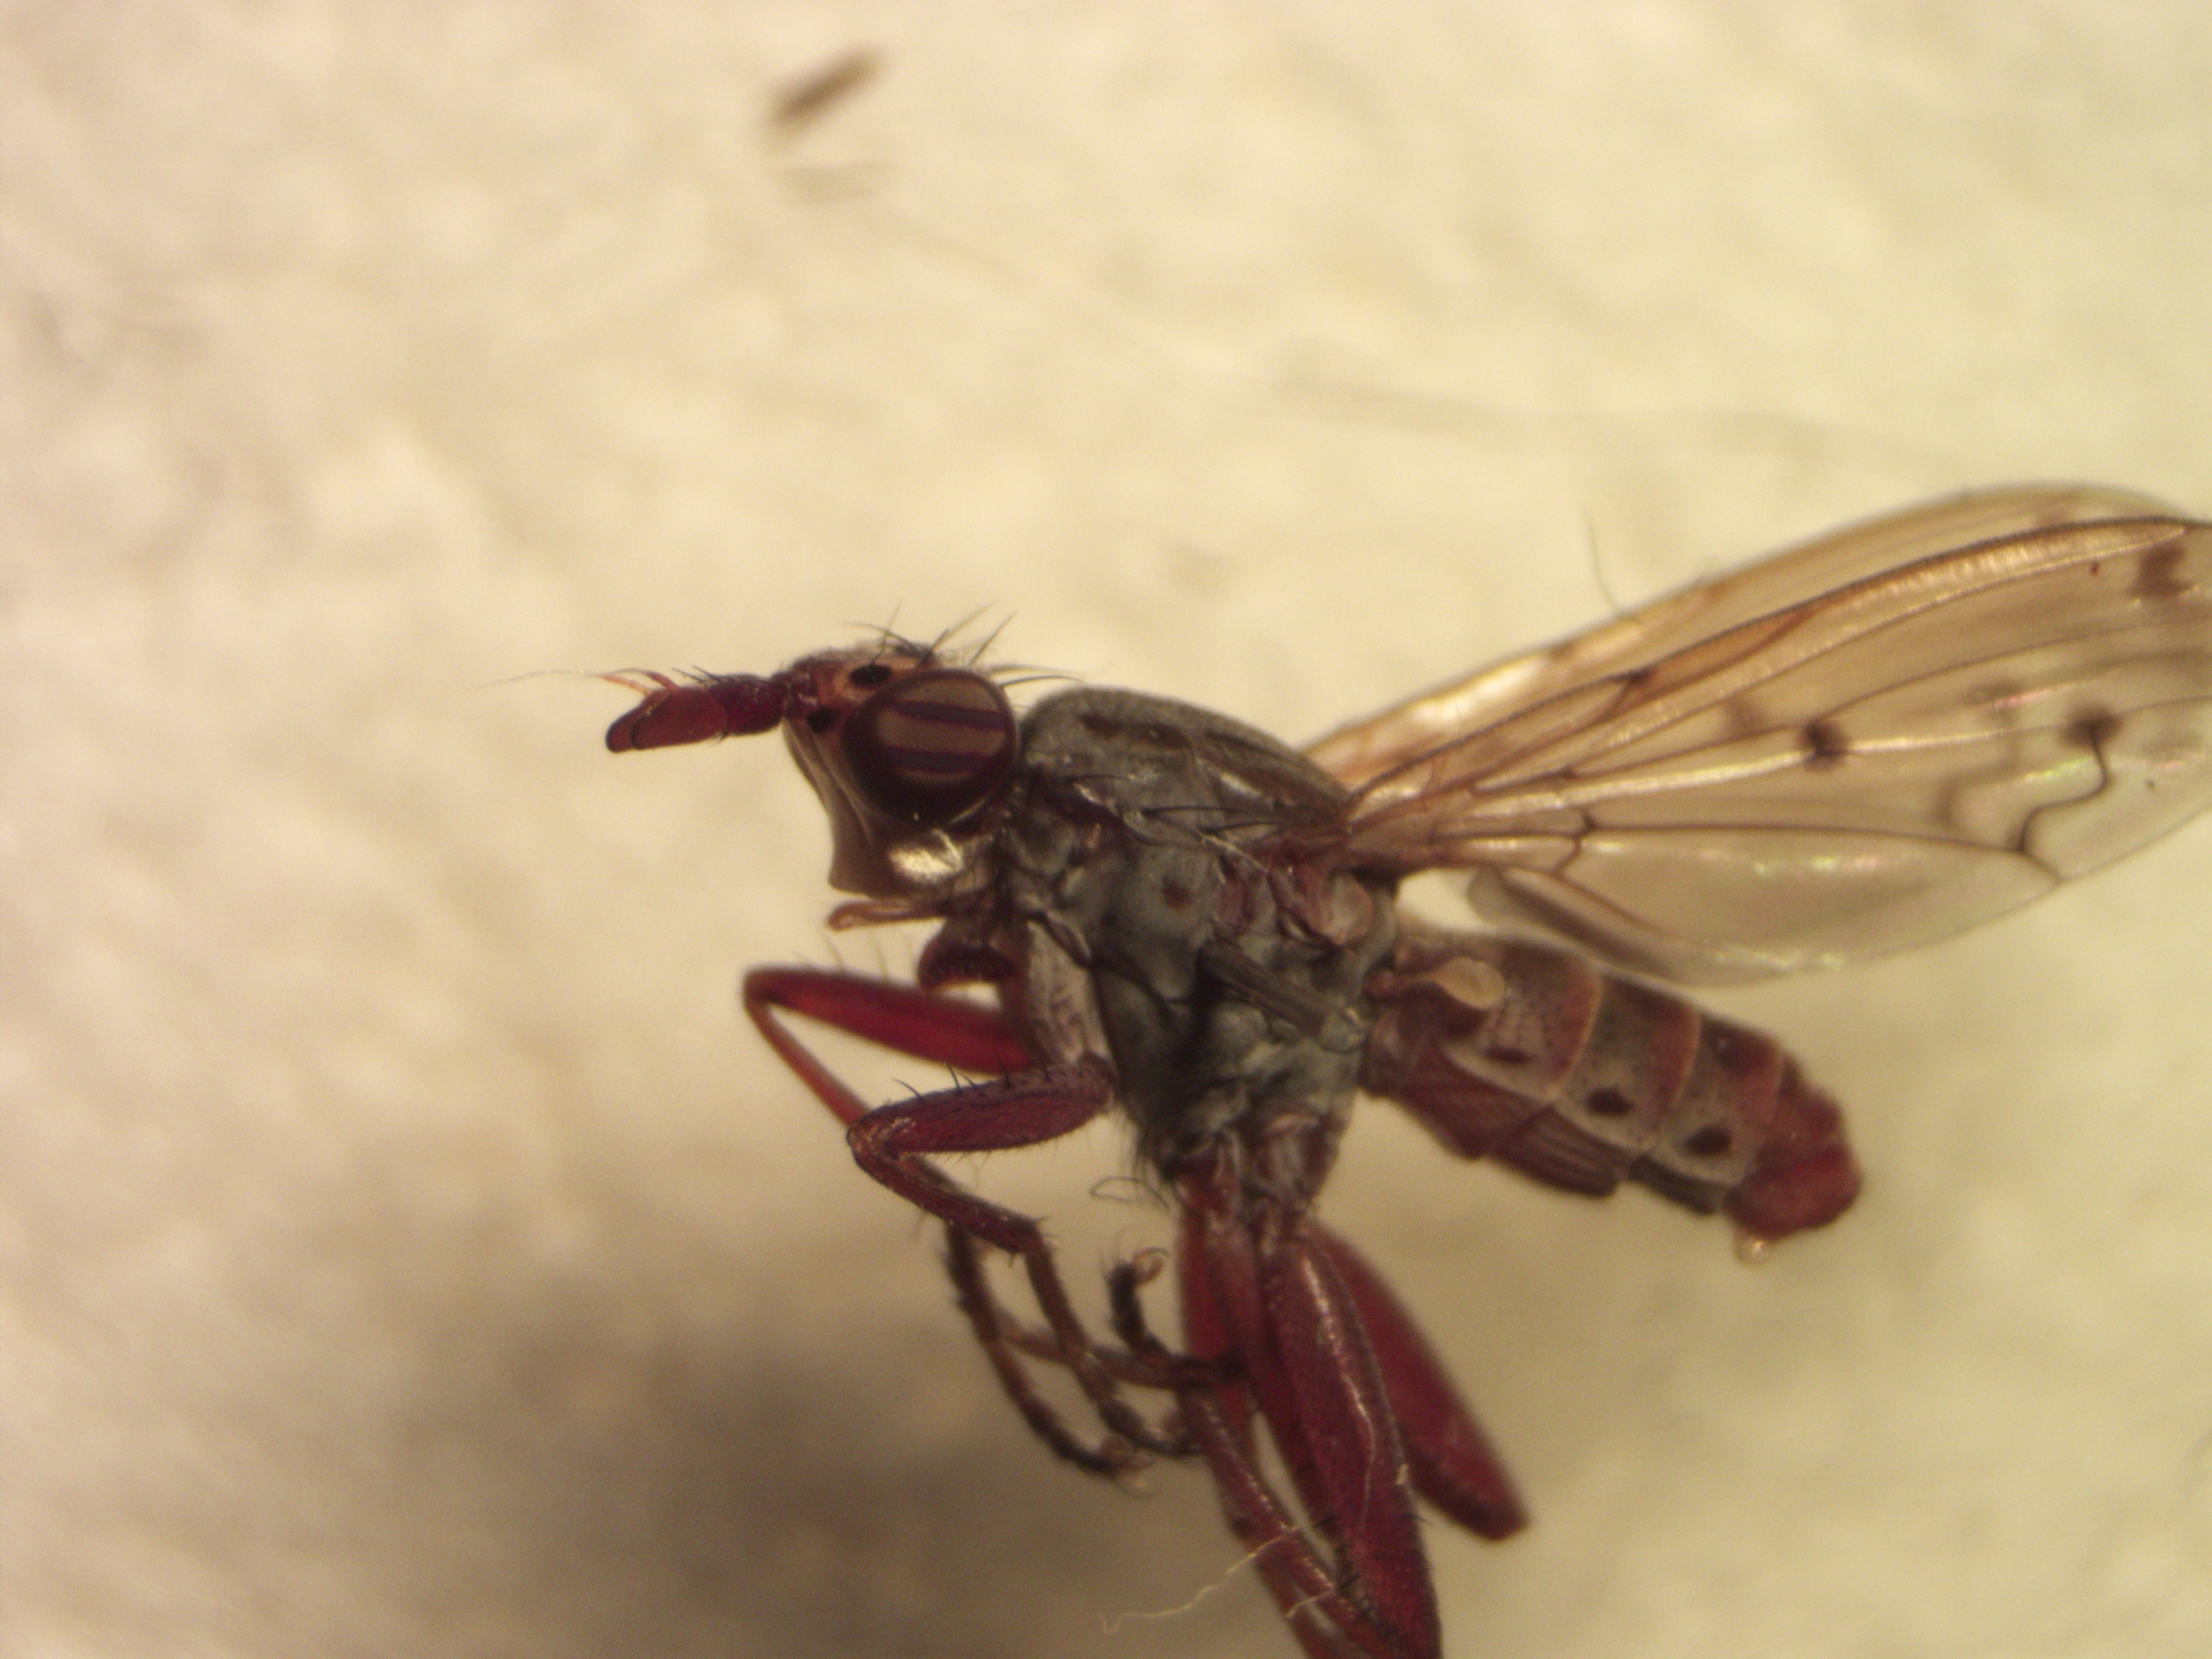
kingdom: Animalia
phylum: Arthropoda
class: Insecta
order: Diptera
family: Sciomyzidae
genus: Elgiva
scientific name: Elgiva cucularia
